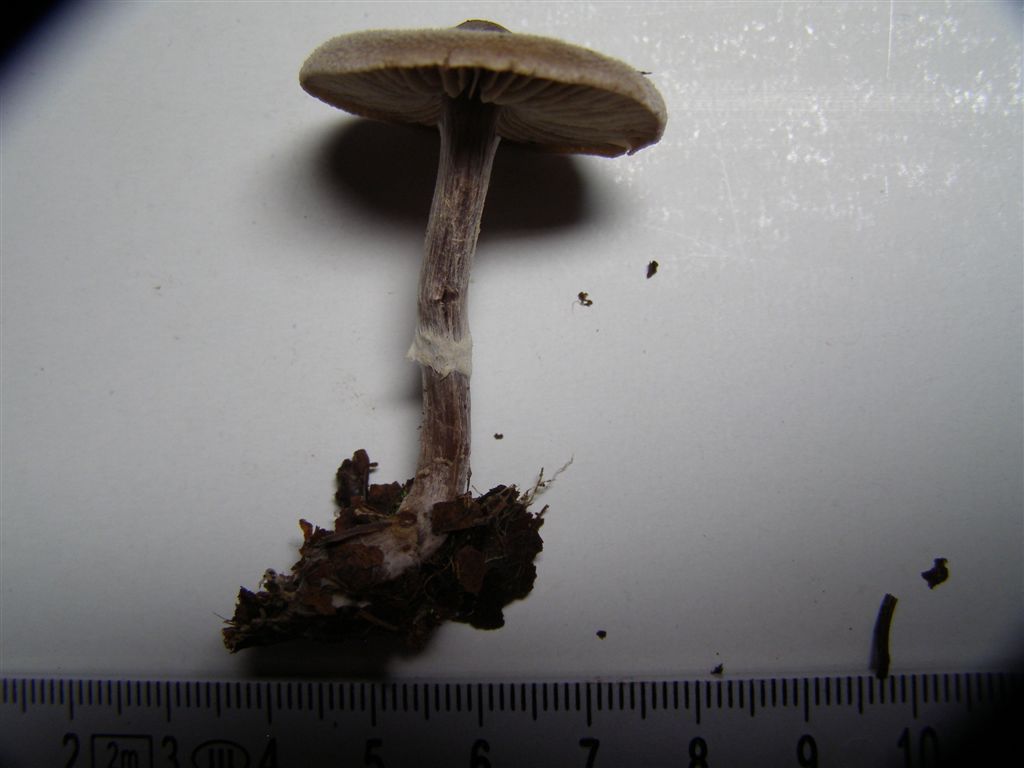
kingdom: Fungi
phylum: Basidiomycota
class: Agaricomycetes
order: Agaricales
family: Cortinariaceae
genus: Cortinarius
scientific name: Cortinarius hemitrichus
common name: hvidfnugget slørhat
